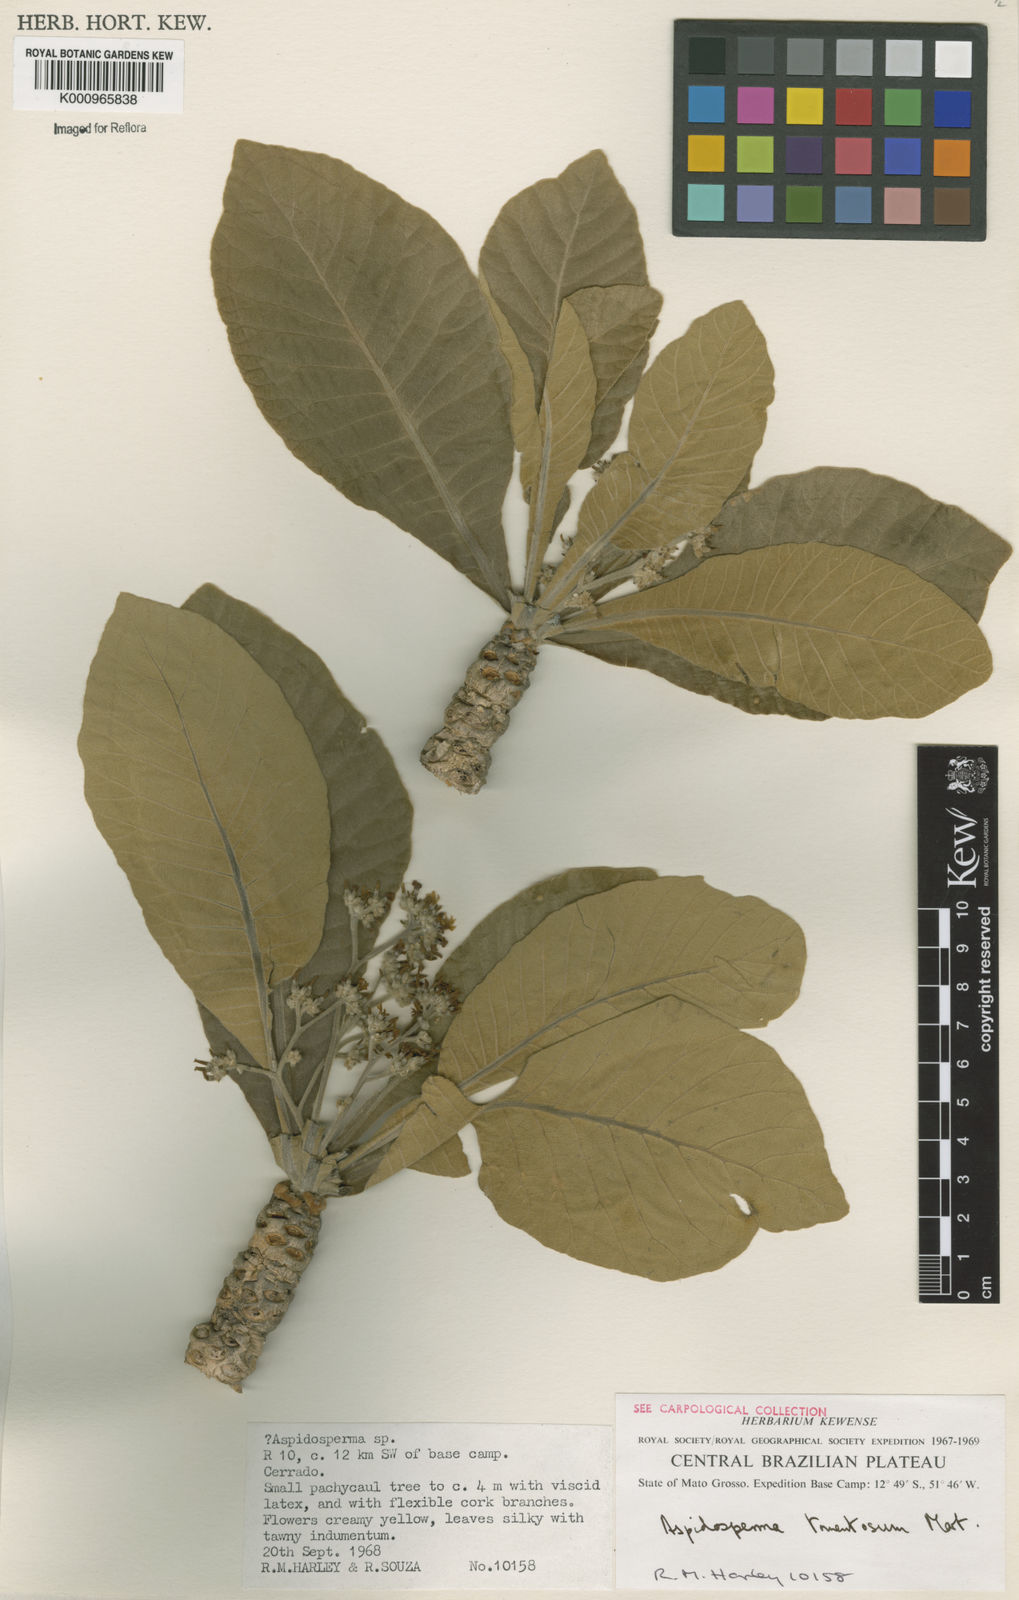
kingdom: Plantae
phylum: Tracheophyta
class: Magnoliopsida
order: Gentianales
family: Apocynaceae
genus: Aspidosperma
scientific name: Aspidosperma tomentosum
